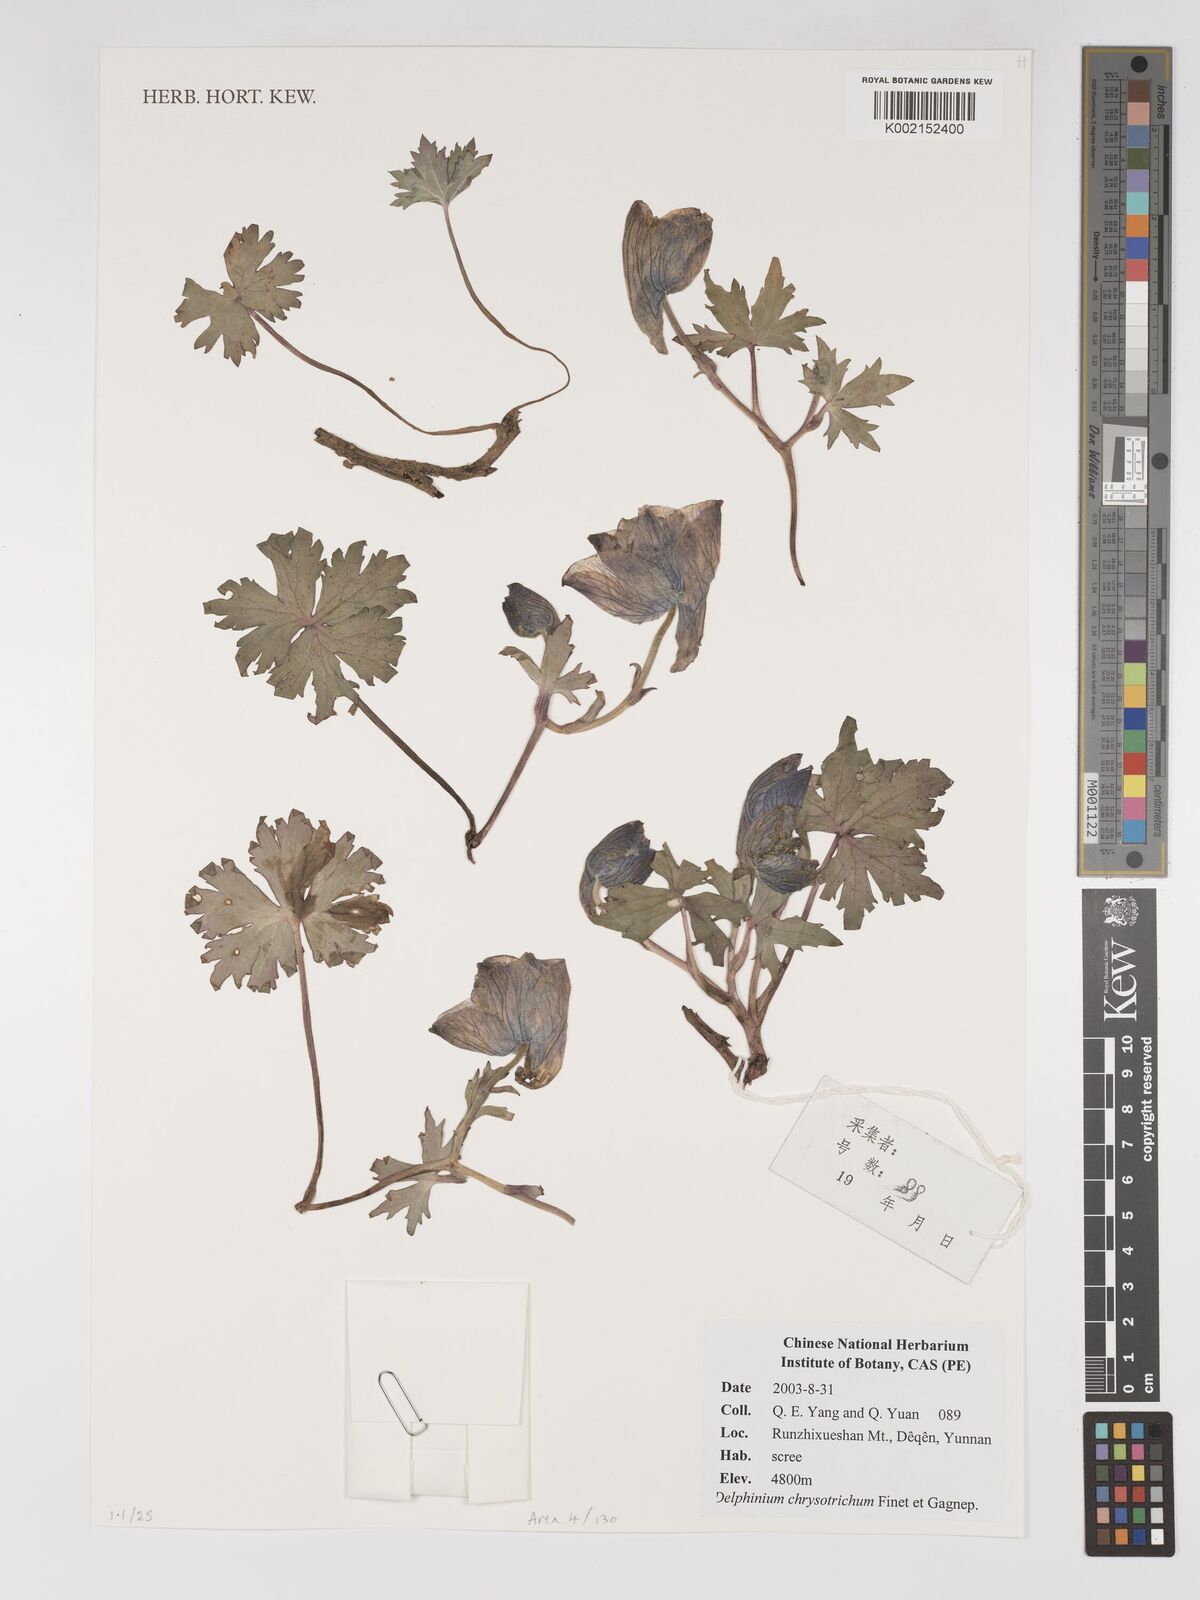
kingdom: Plantae
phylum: Tracheophyta
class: Magnoliopsida
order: Ranunculales
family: Ranunculaceae
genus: Delphinium
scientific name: Delphinium chrysotrichum
